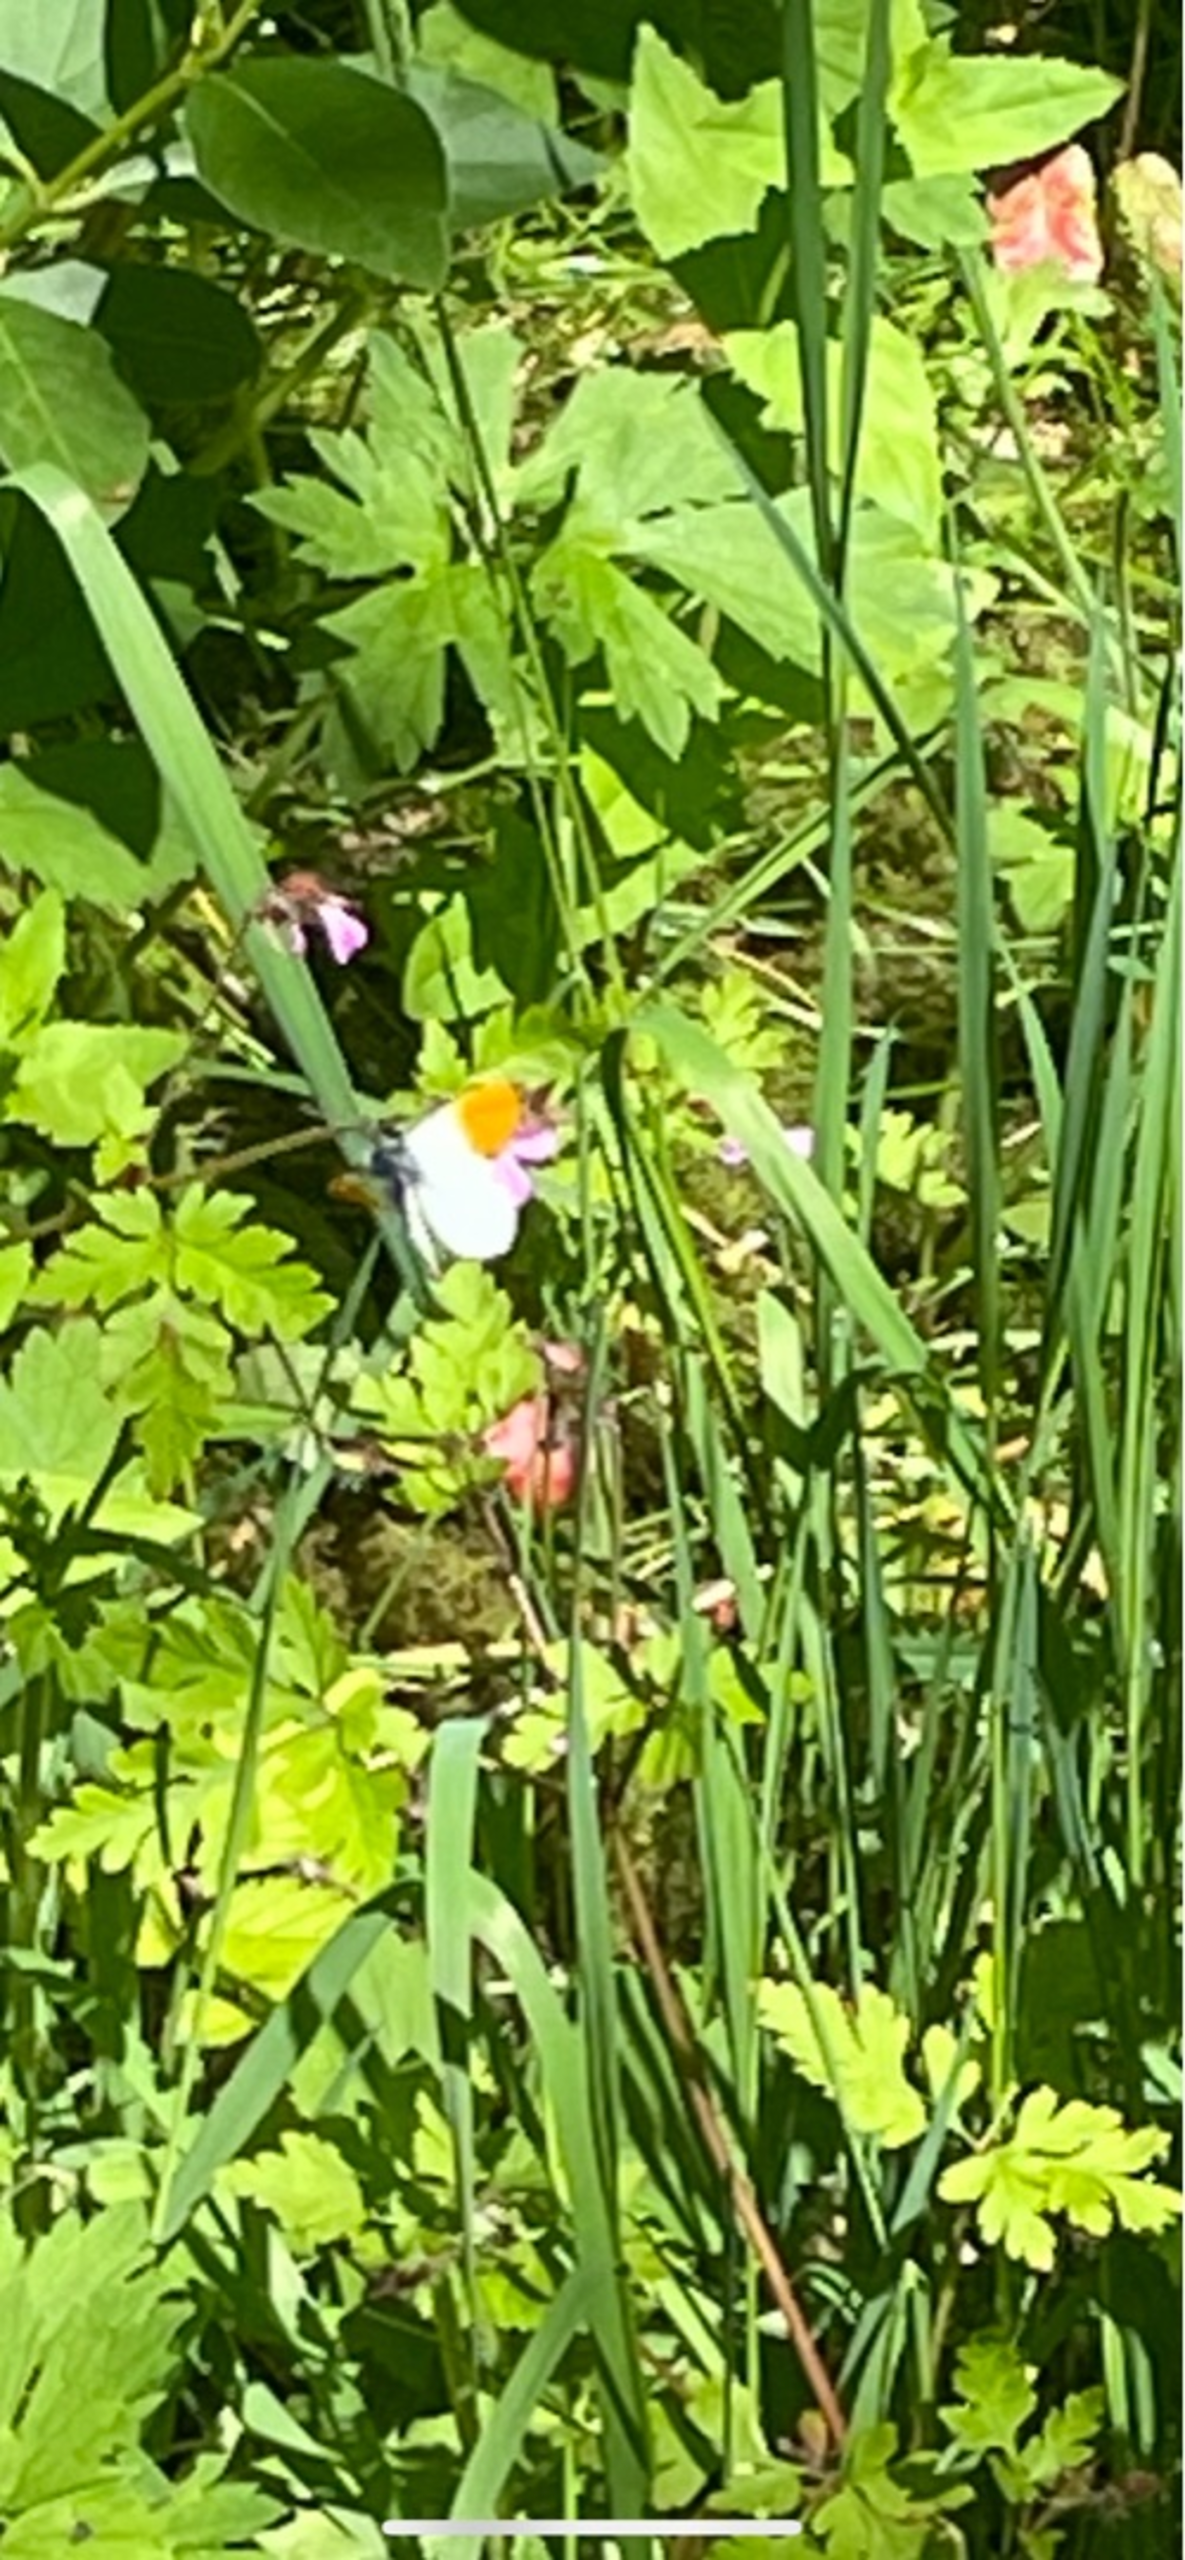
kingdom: Animalia
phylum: Arthropoda
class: Insecta
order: Lepidoptera
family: Pieridae
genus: Anthocharis
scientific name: Anthocharis cardamines
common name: Aurora
